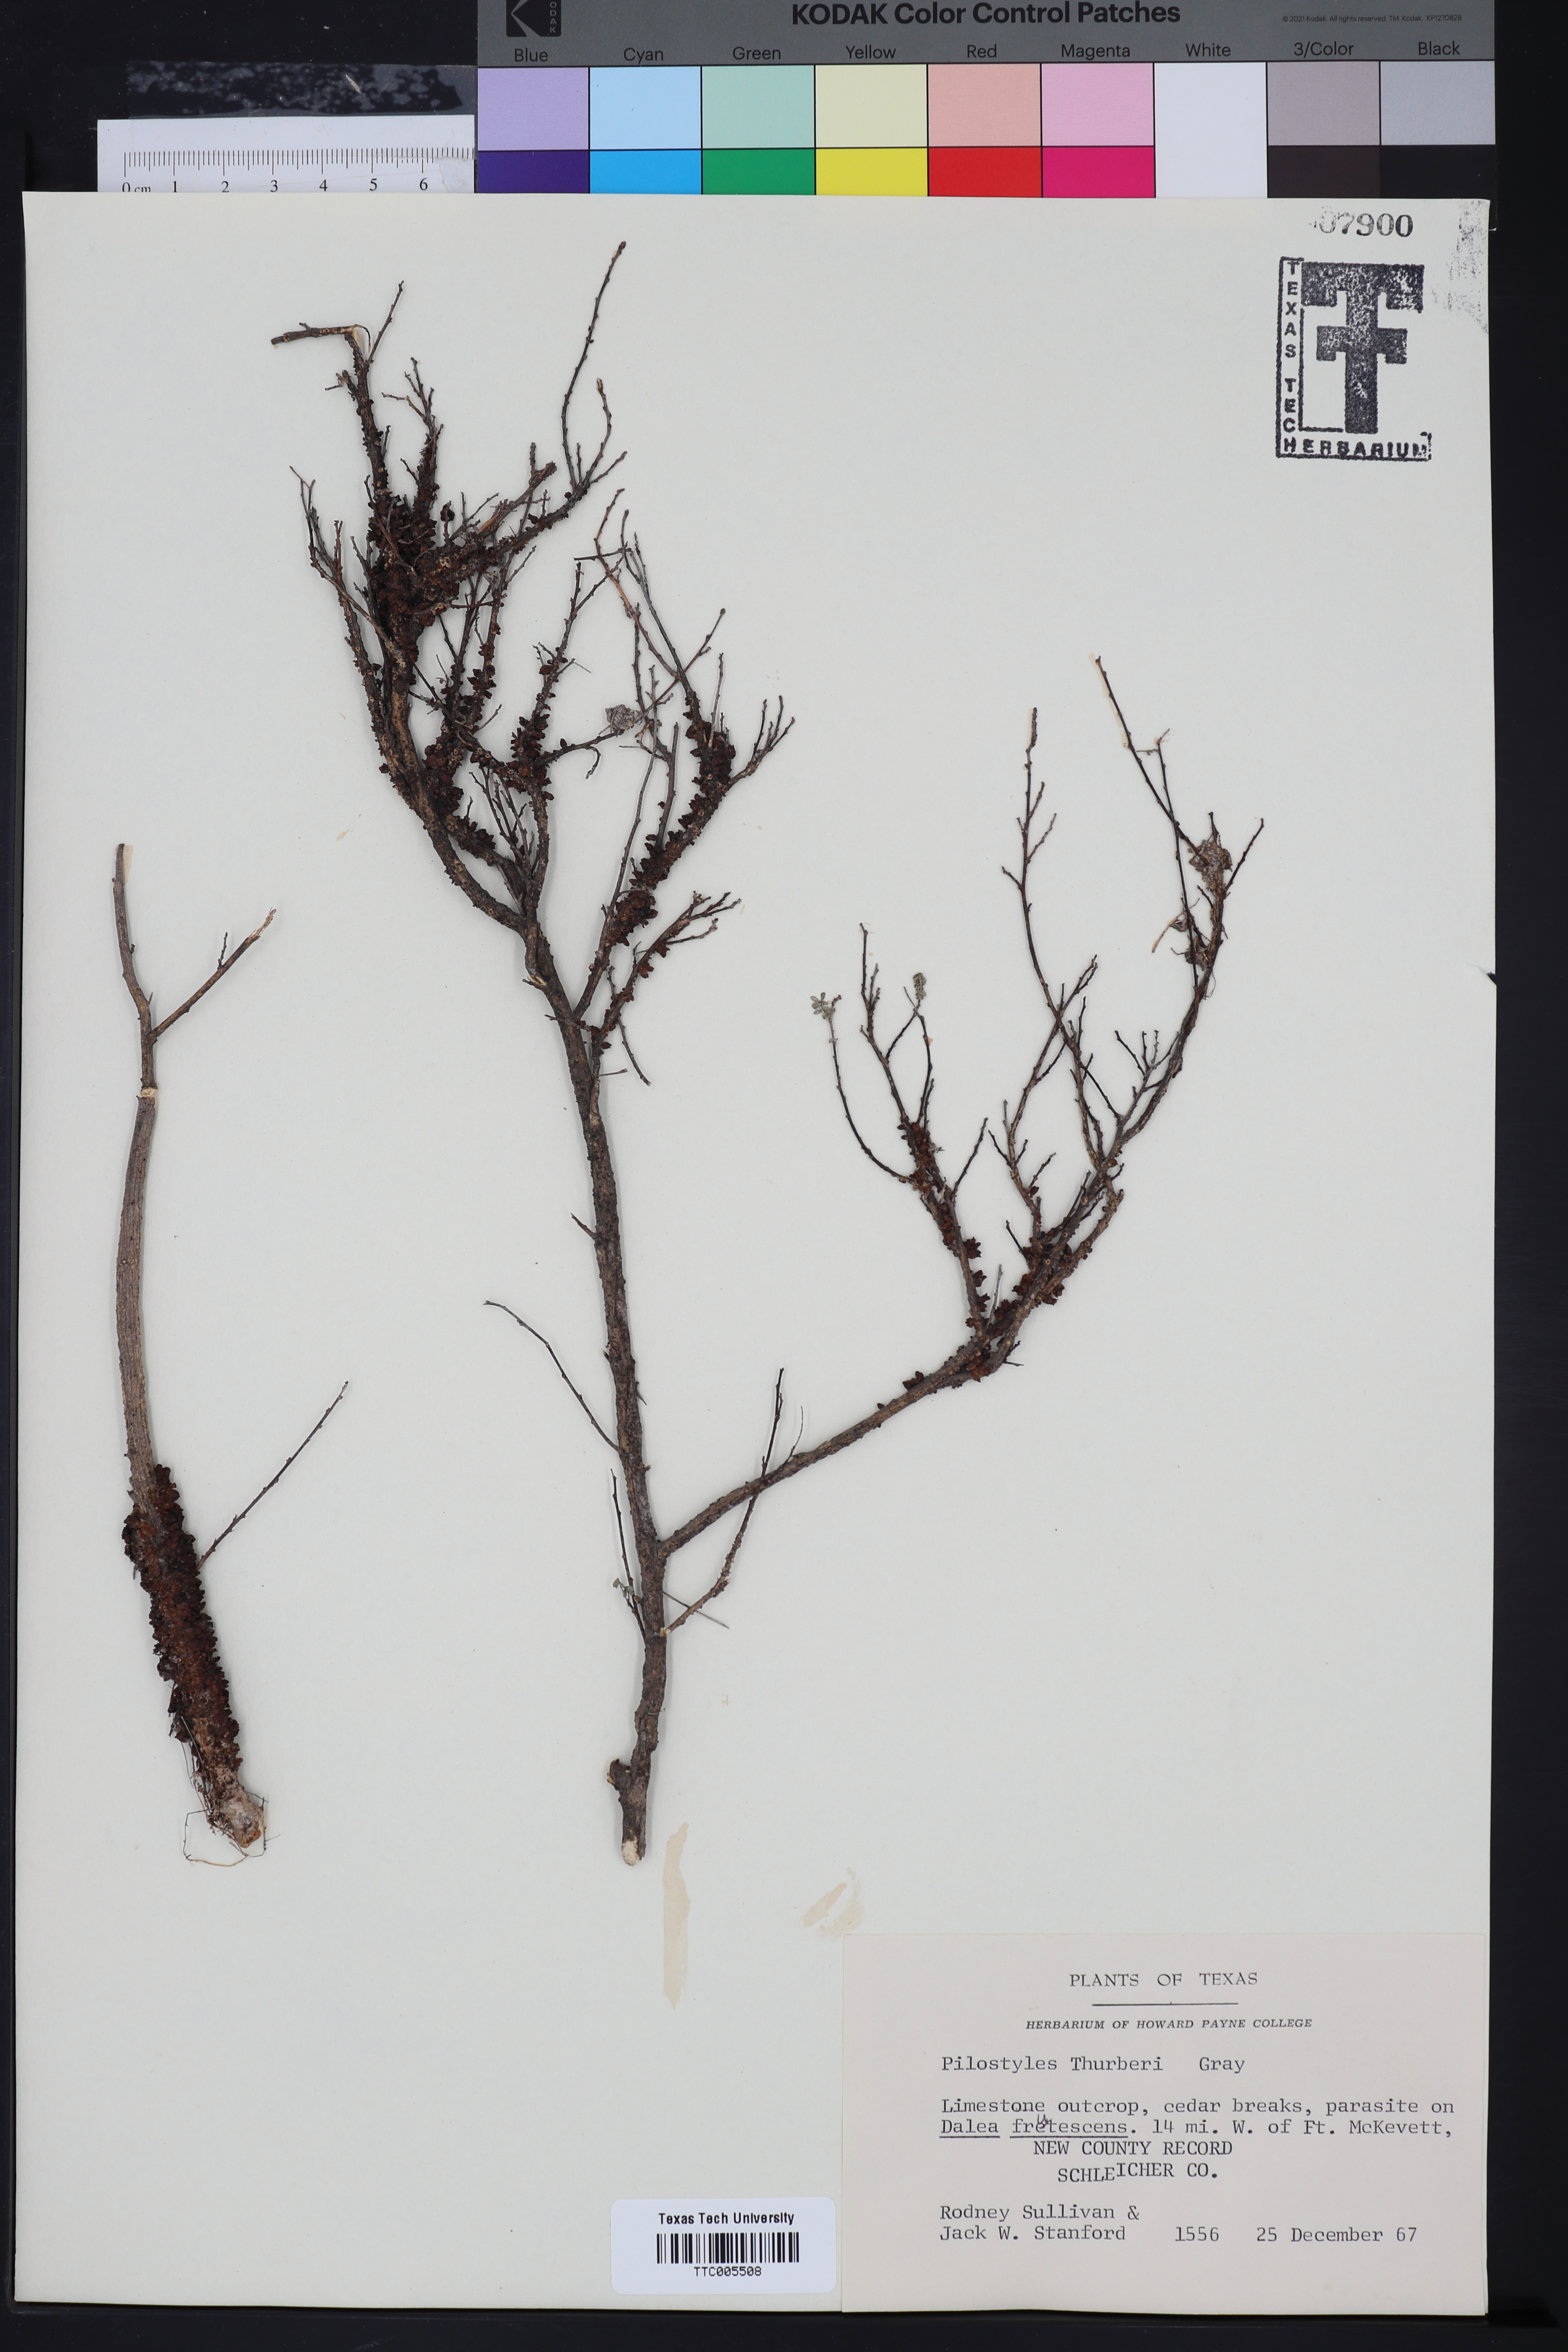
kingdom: Plantae
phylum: Tracheophyta
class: Magnoliopsida
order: Cucurbitales
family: Apodanthaceae
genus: Pilostyles
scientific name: Pilostyles thurberi
